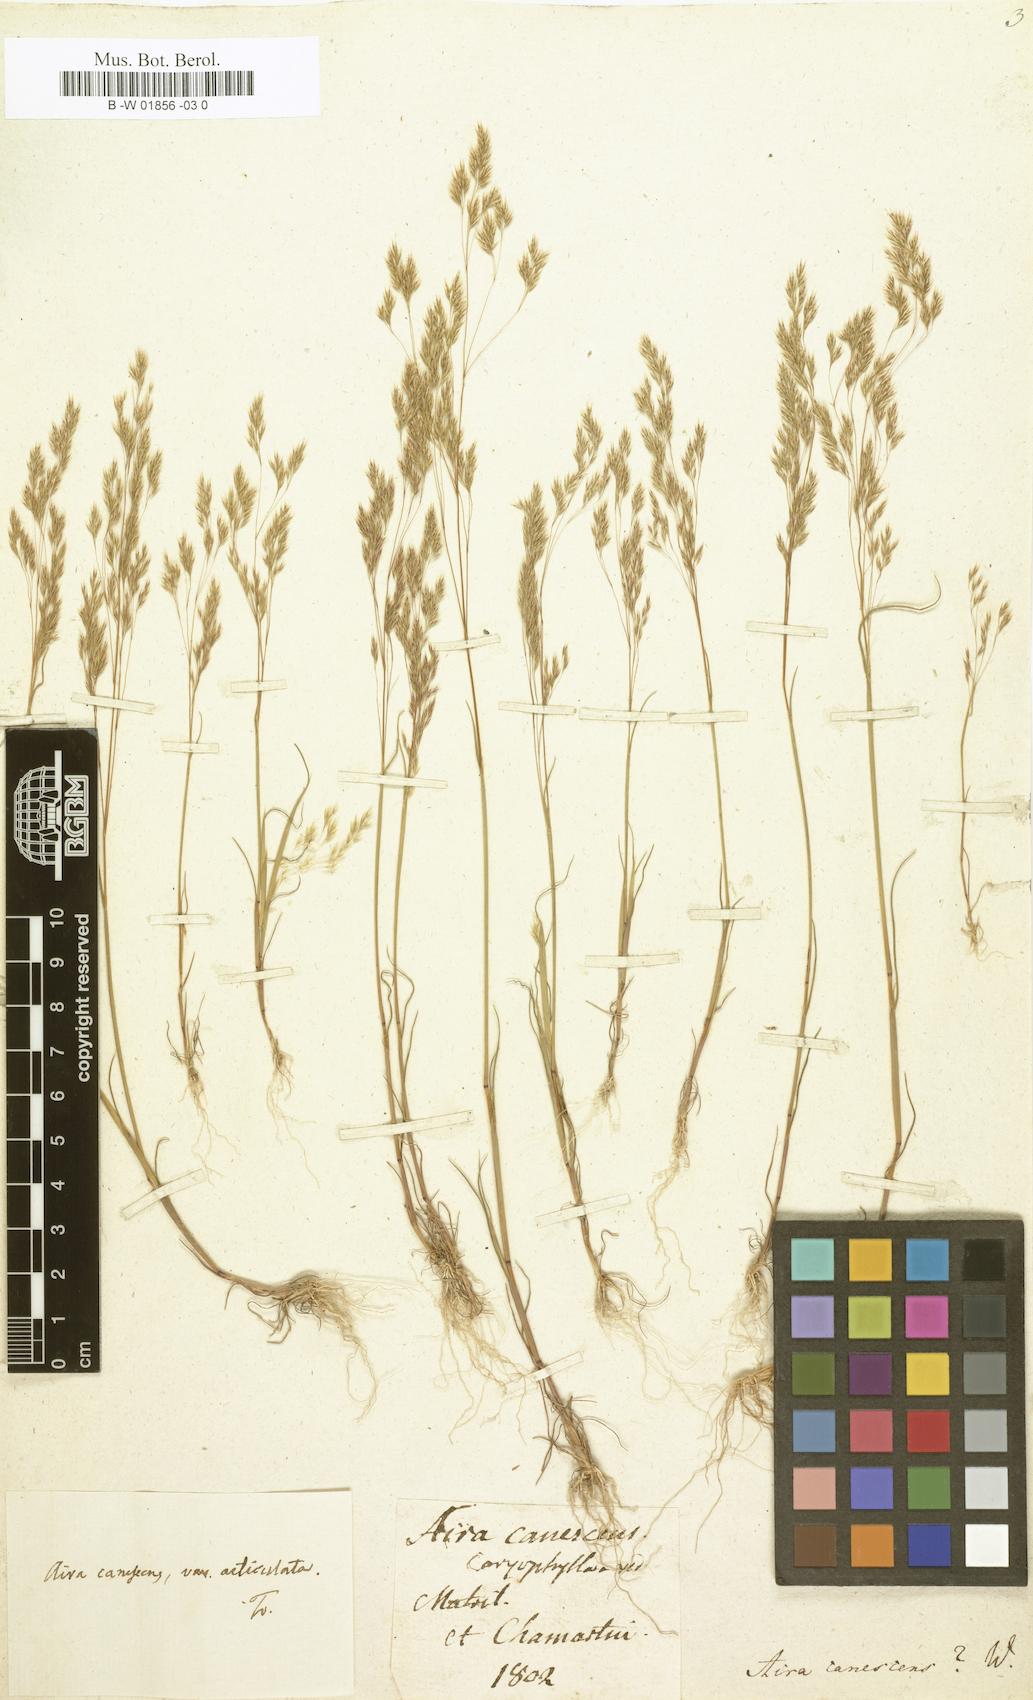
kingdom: Plantae
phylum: Tracheophyta
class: Liliopsida
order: Poales
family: Poaceae
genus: Corynephorus
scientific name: Corynephorus canescens
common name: Grey hair-grass
